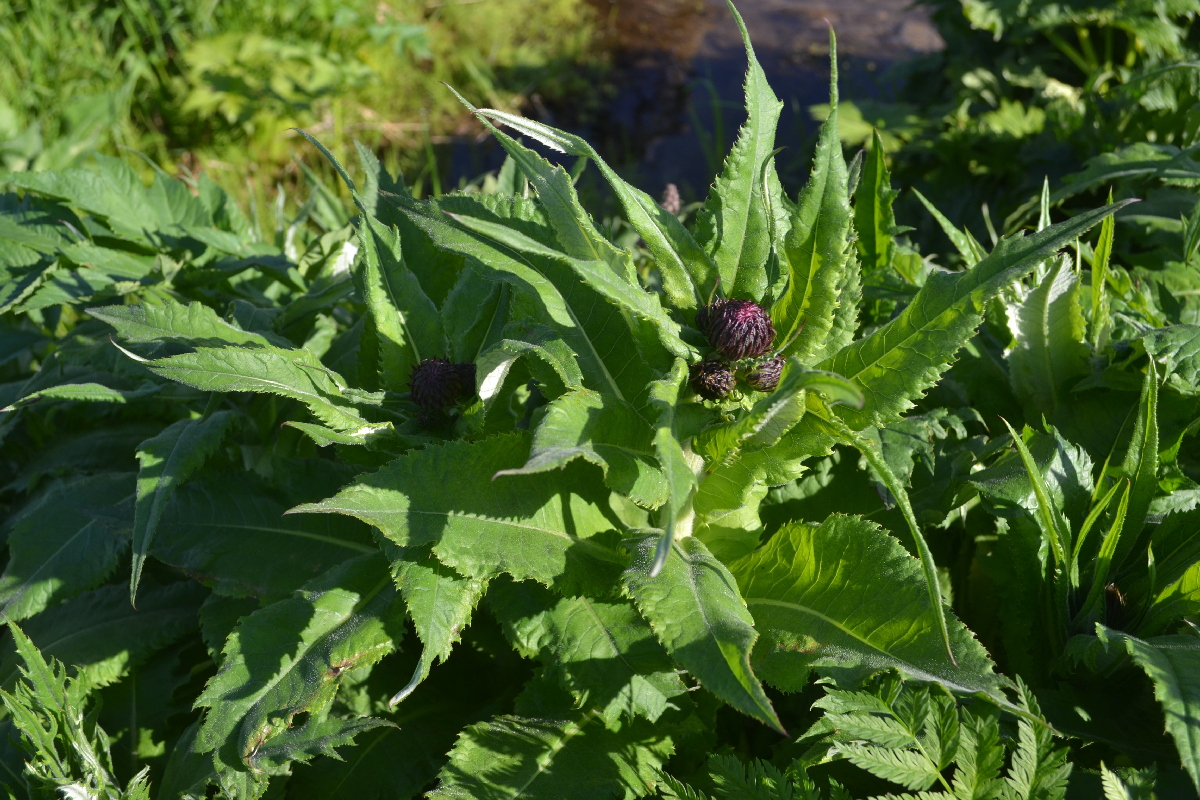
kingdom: Plantae
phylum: Tracheophyta
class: Magnoliopsida
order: Asterales
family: Asteraceae
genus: Cirsium
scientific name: Cirsium helenioides
